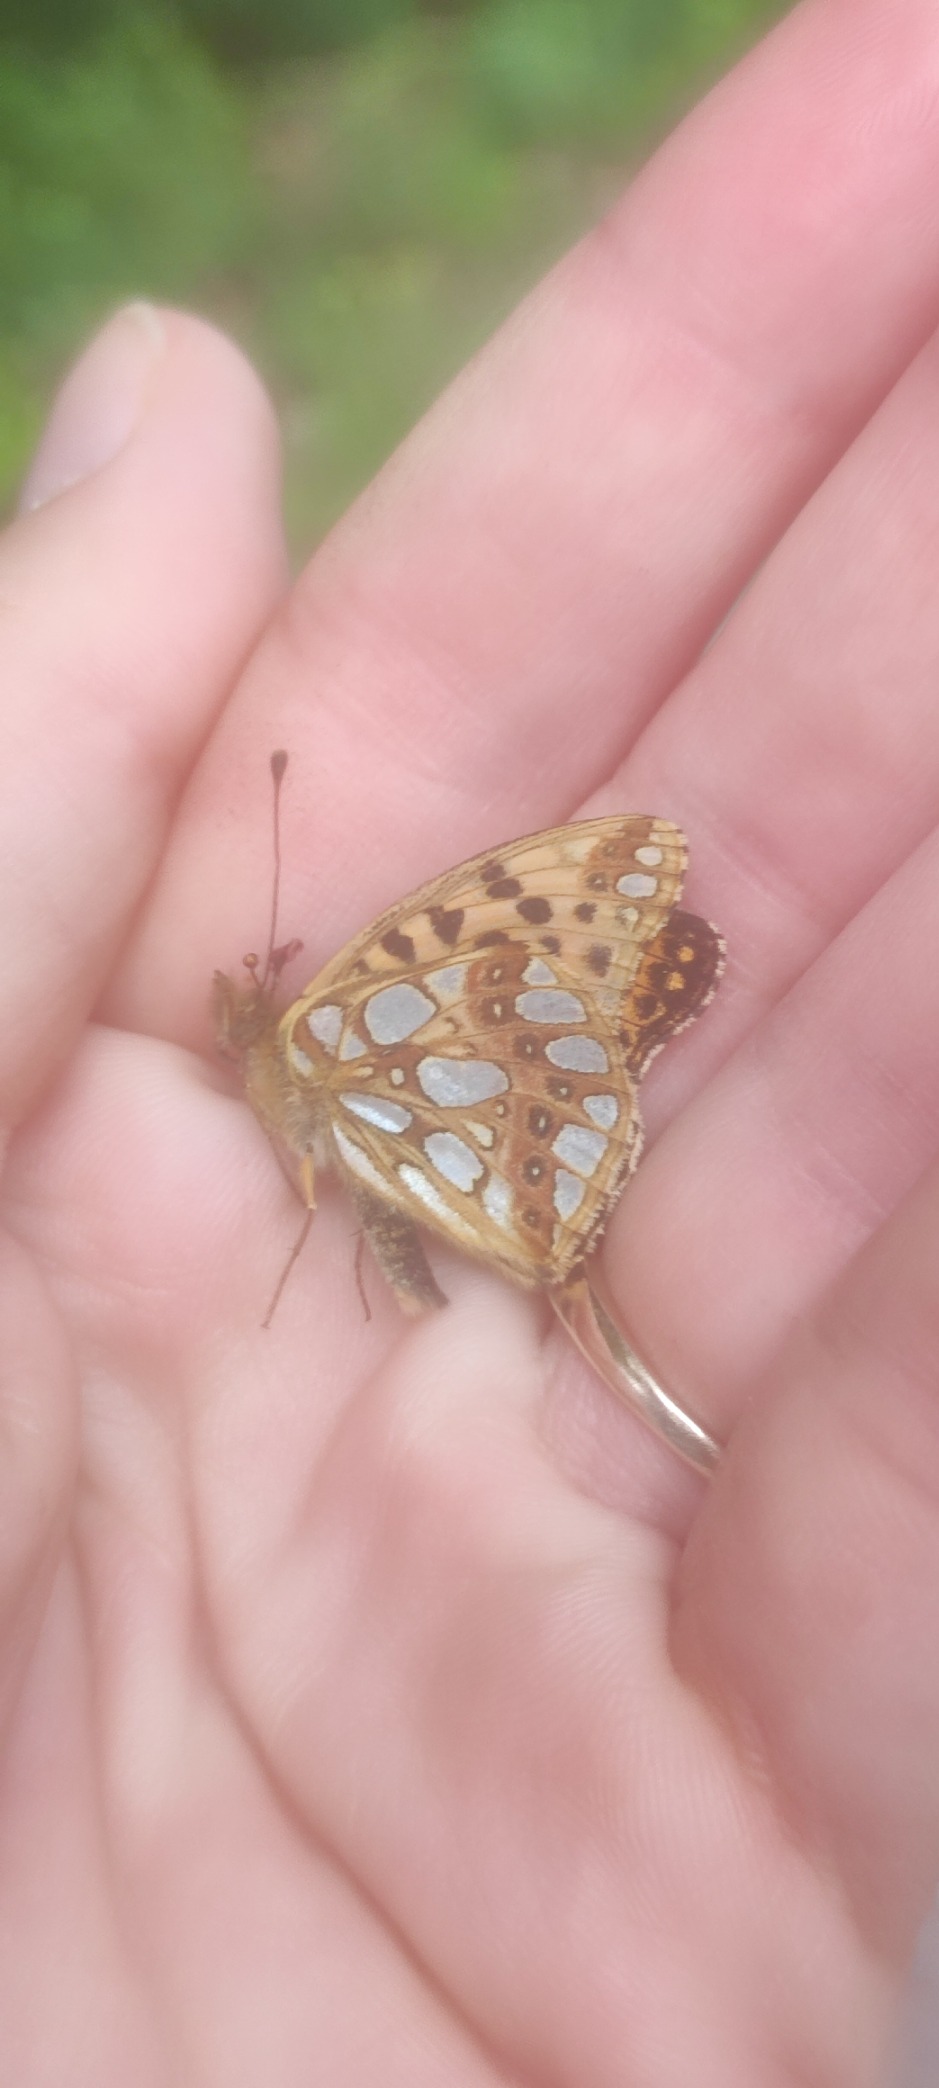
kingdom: Animalia
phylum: Arthropoda
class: Insecta
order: Lepidoptera
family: Nymphalidae
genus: Issoria
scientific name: Issoria lathonia
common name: Storplettet perlemorsommerfugl
